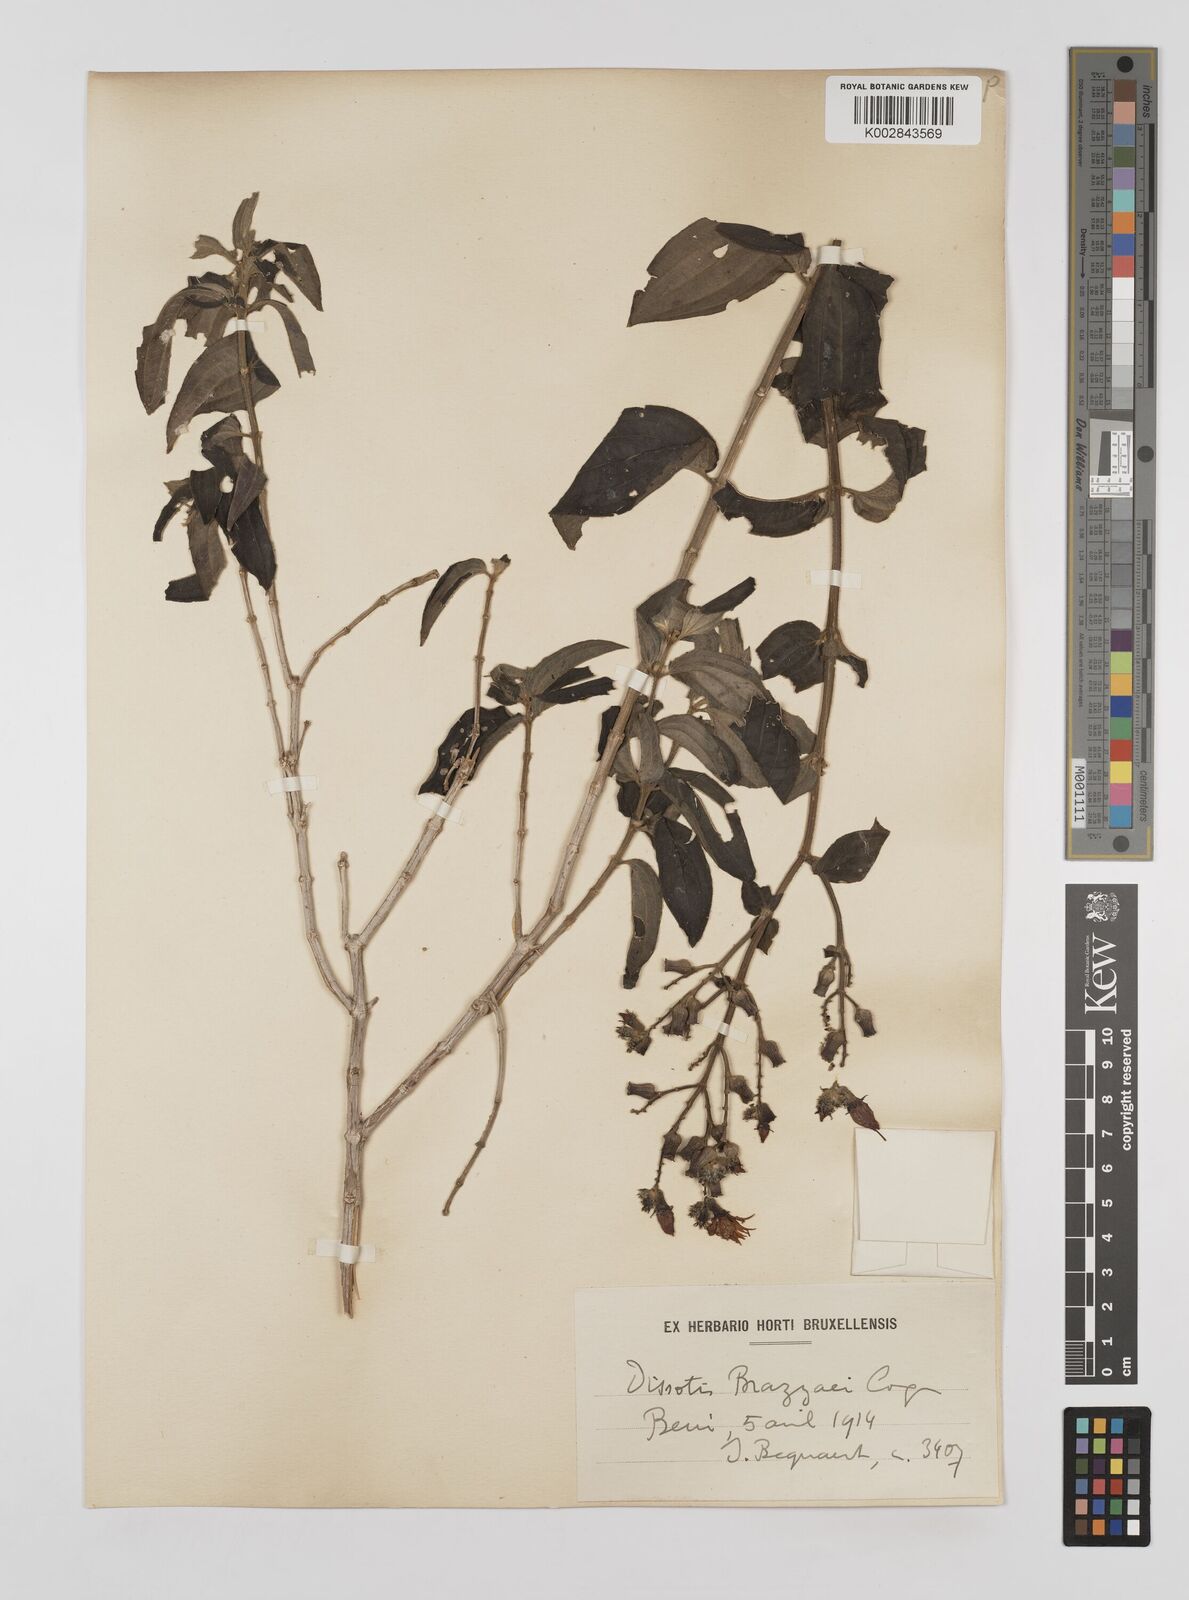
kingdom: Plantae
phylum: Tracheophyta
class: Magnoliopsida
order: Myrtales
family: Melastomataceae
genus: Dupineta
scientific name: Dupineta brazzae
